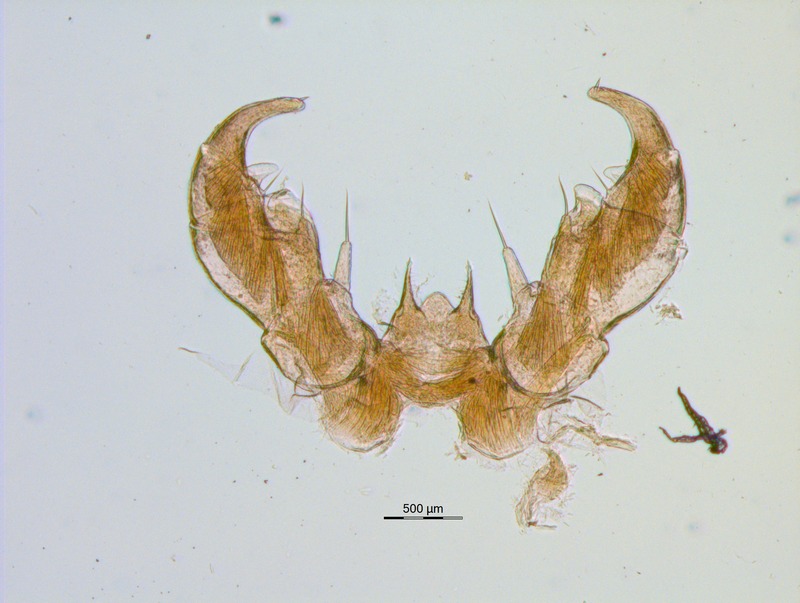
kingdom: Animalia
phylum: Arthropoda
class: Diplopoda
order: Glomerida
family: Glomeridae
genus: Glomeris
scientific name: Glomeris connexa
